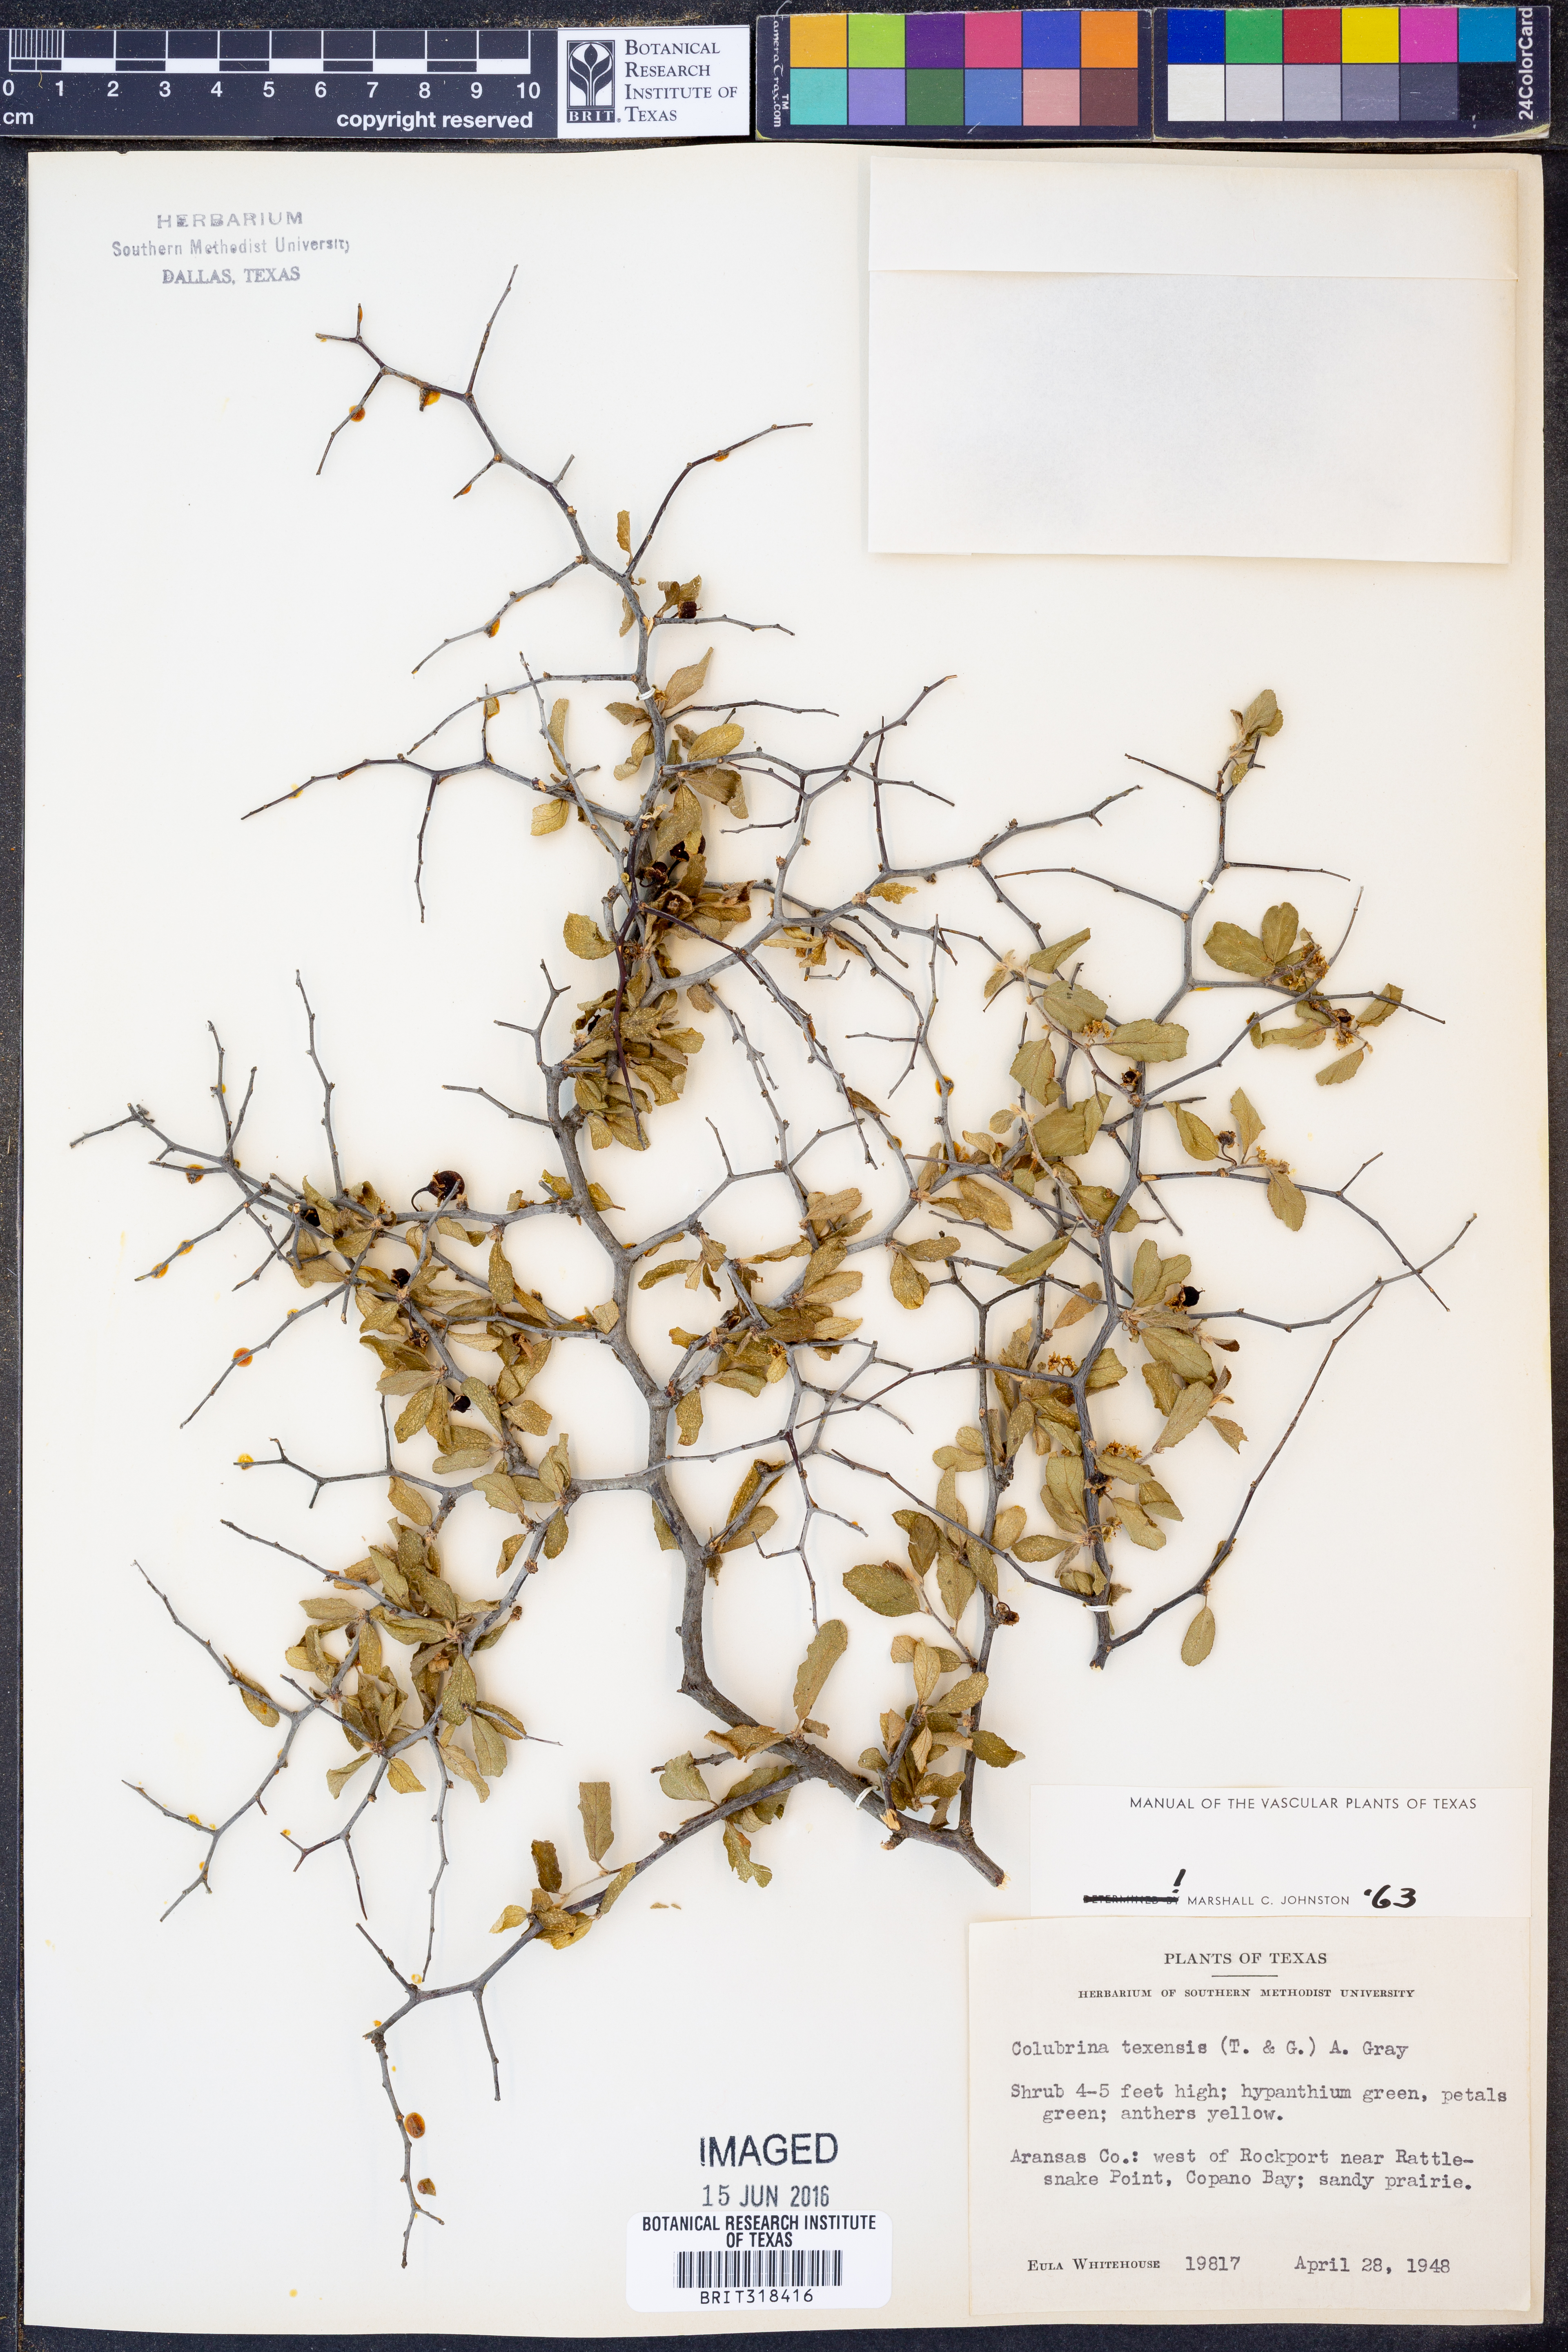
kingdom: Plantae
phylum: Tracheophyta
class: Magnoliopsida
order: Rosales
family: Rhamnaceae
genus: Colubrina
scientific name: Colubrina texensis
